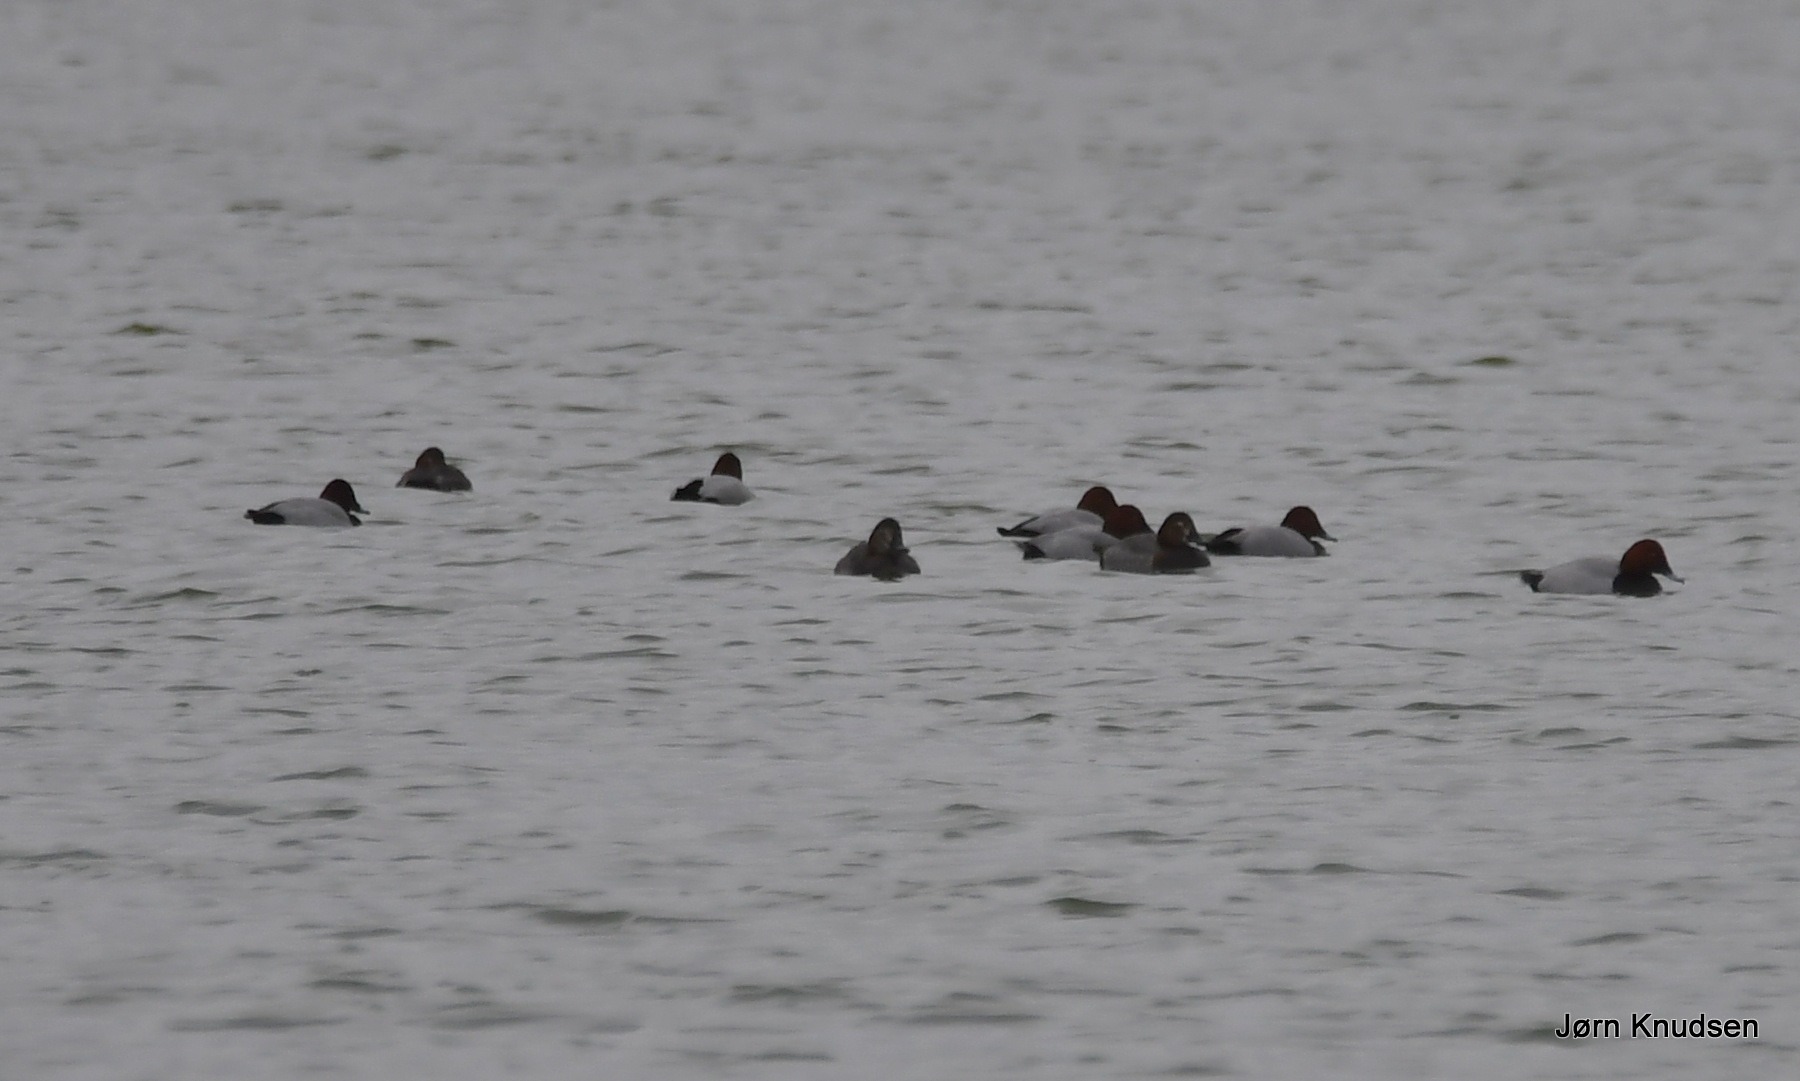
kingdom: Animalia
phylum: Chordata
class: Aves
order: Anseriformes
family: Anatidae
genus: Aythya
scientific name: Aythya ferina
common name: Taffeland
